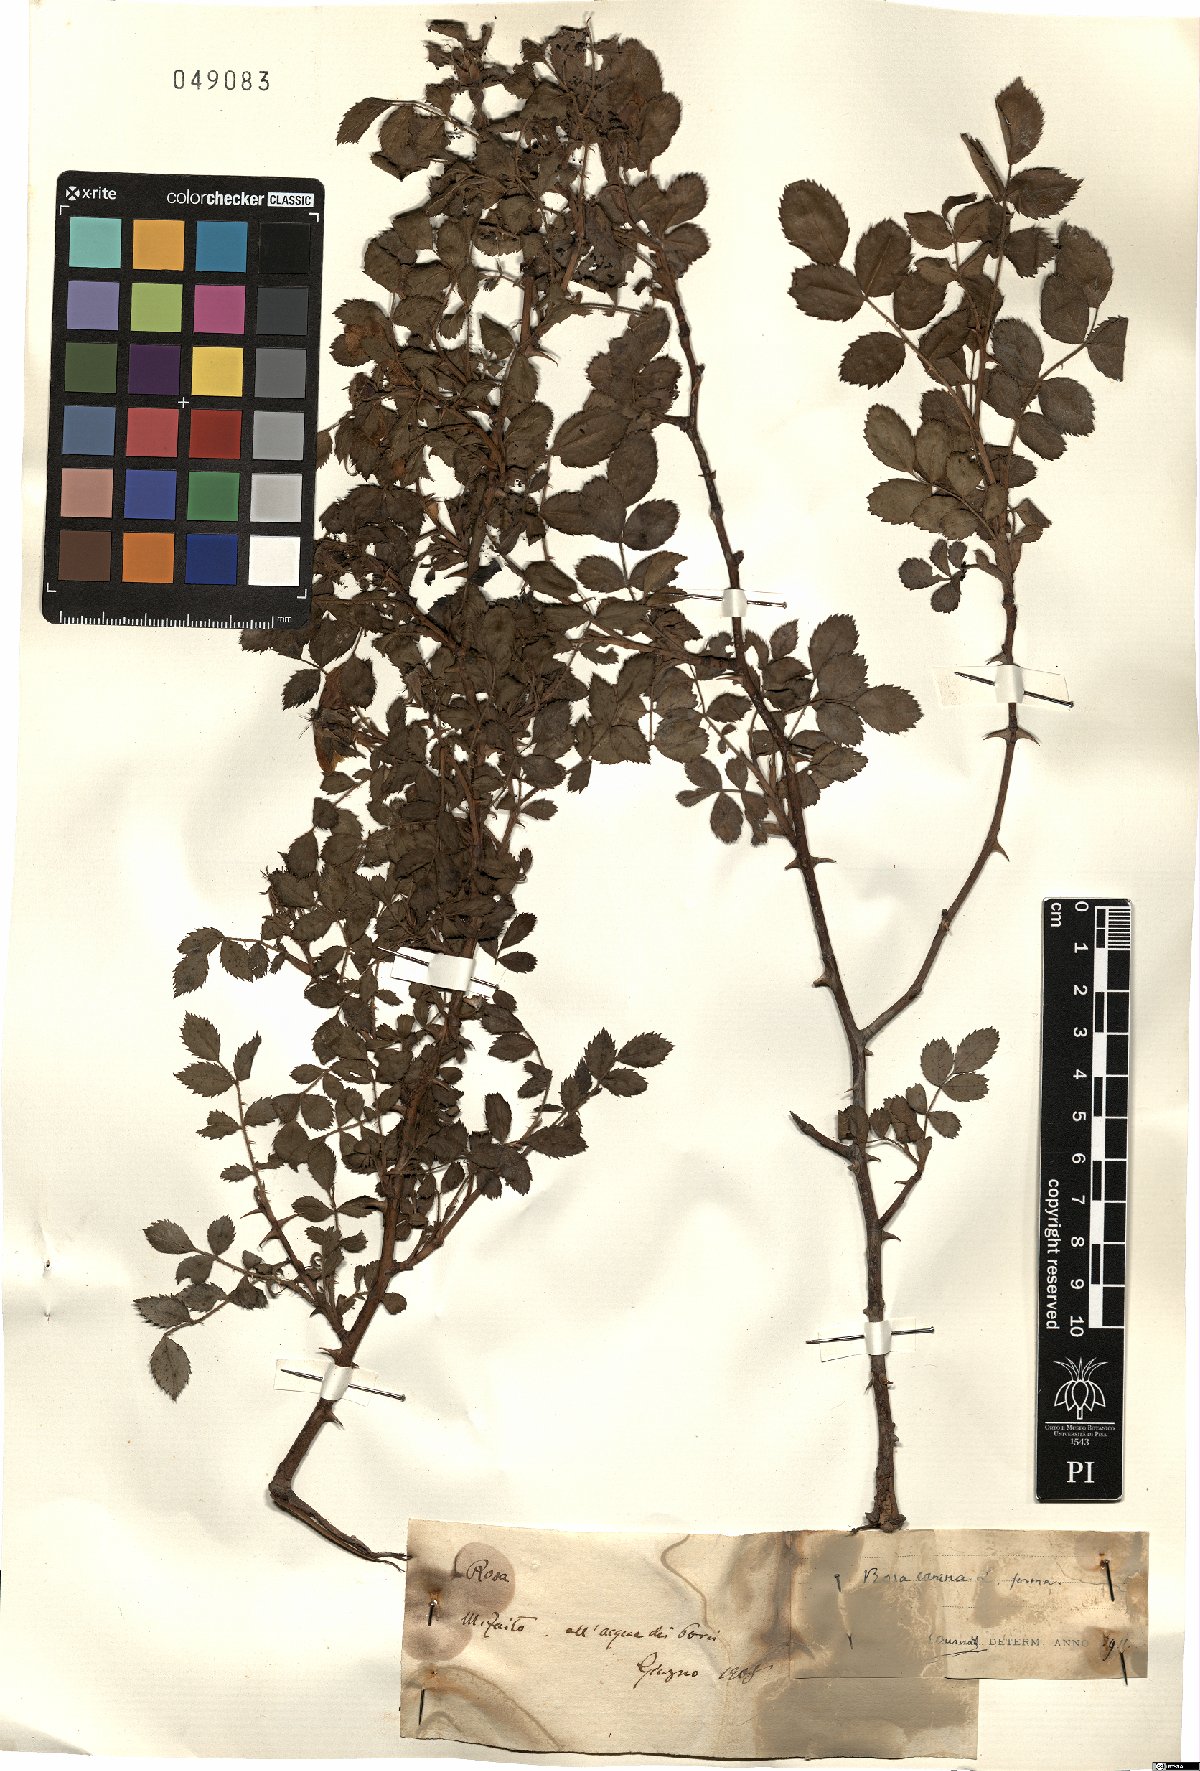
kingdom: Plantae
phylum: Tracheophyta
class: Magnoliopsida
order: Rosales
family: Rosaceae
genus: Rosa
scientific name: Rosa canina
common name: Dog rose
